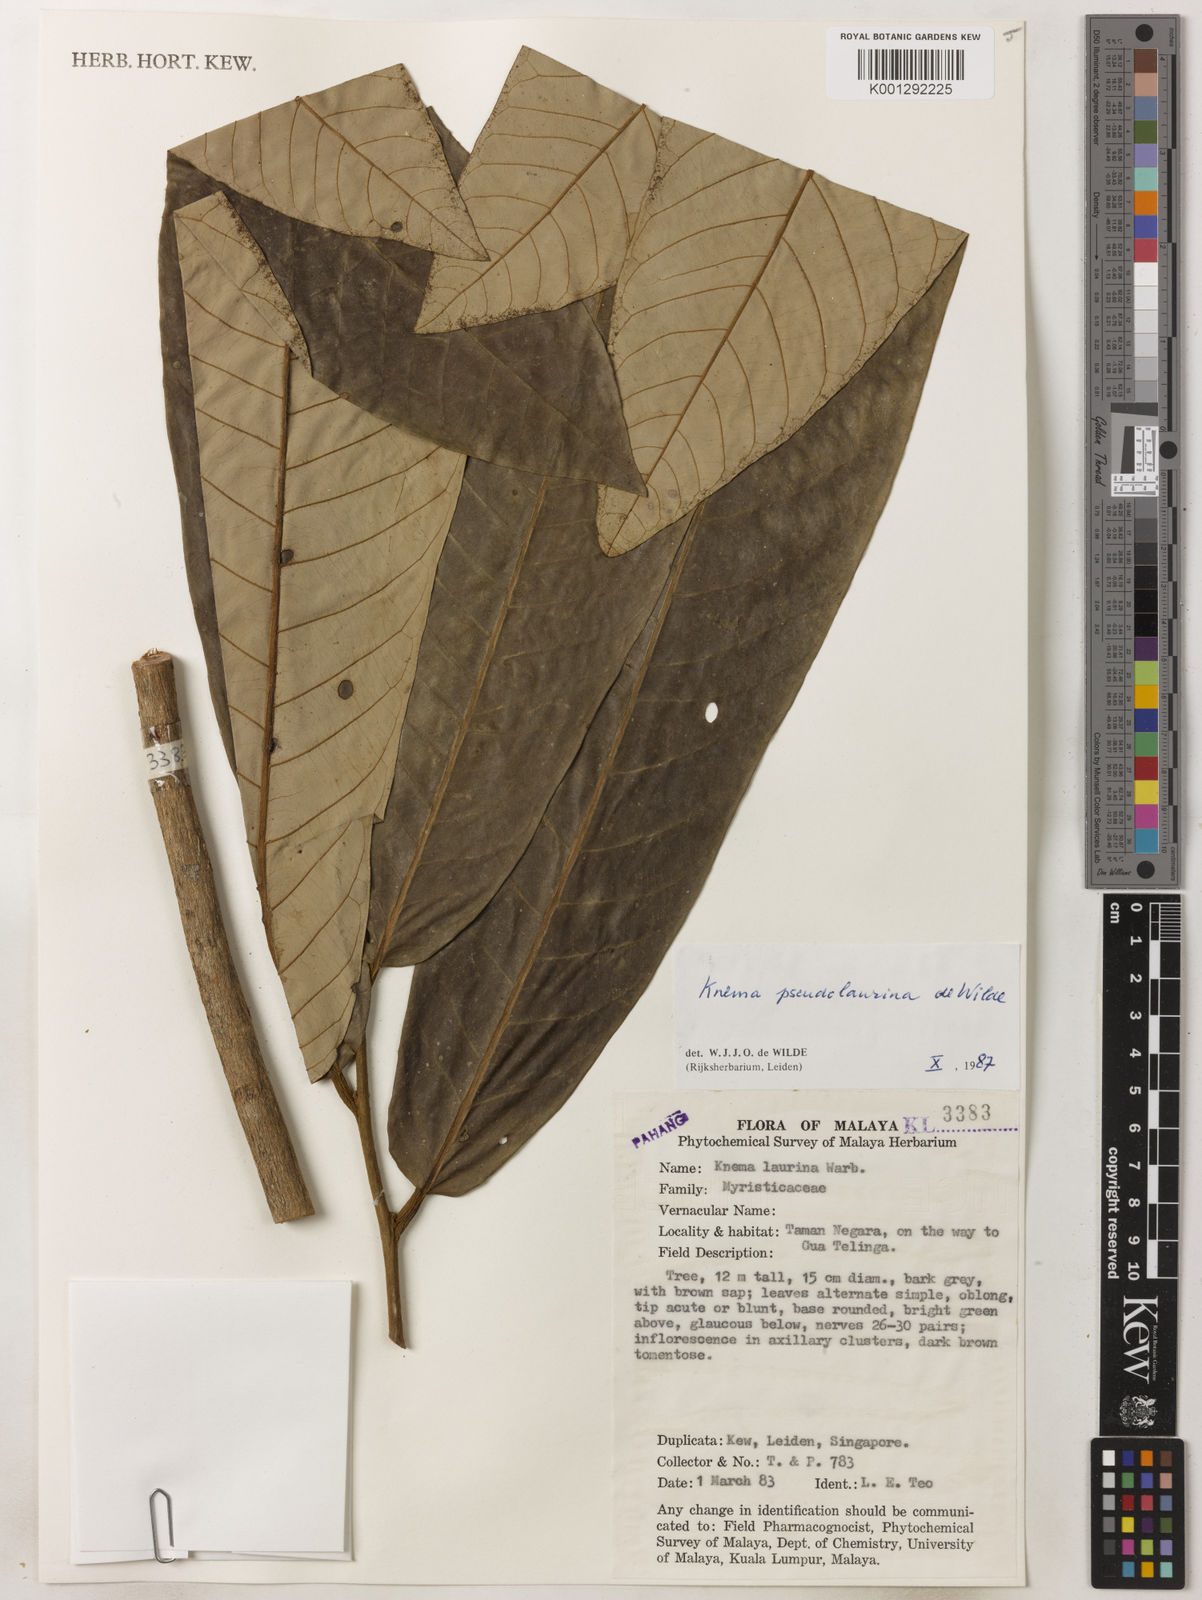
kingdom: Plantae
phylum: Tracheophyta
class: Magnoliopsida
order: Magnoliales
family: Myristicaceae
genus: Knema
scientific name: Knema pseudolaurina
